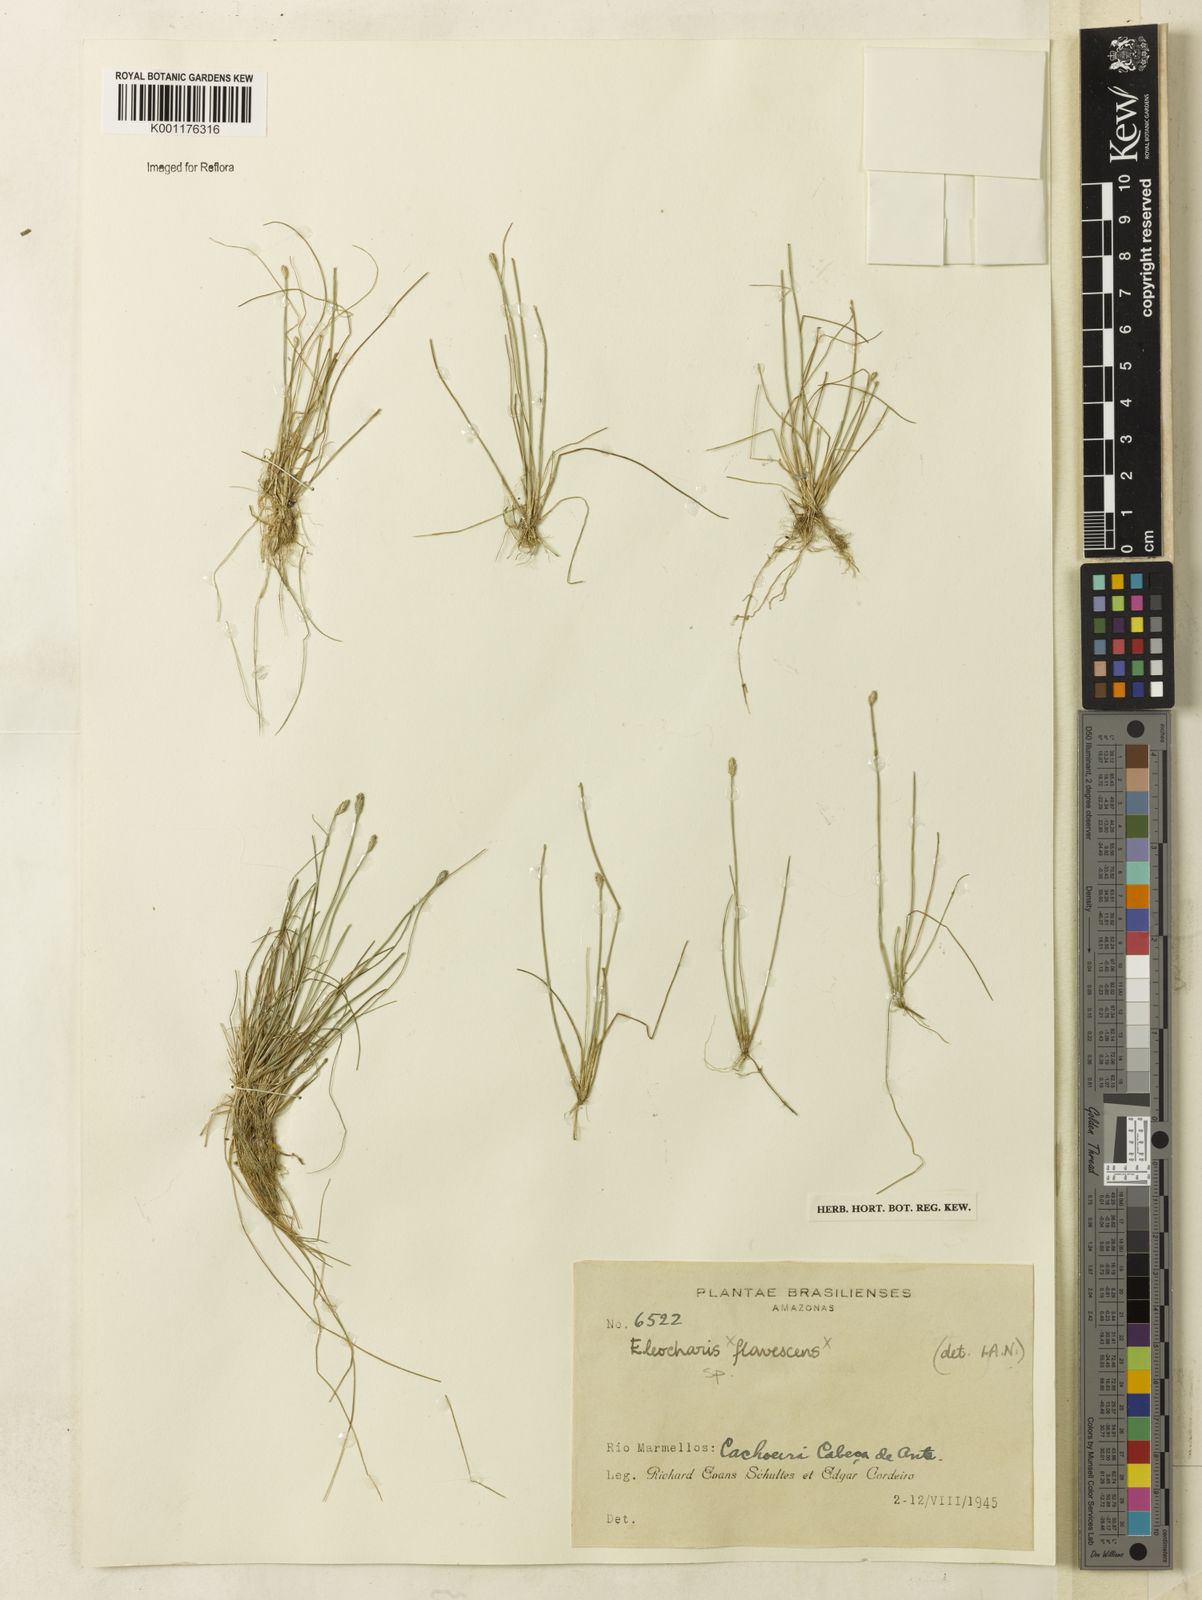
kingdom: Plantae
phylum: Tracheophyta
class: Liliopsida
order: Poales
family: Cyperaceae
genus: Eleocharis
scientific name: Eleocharis
